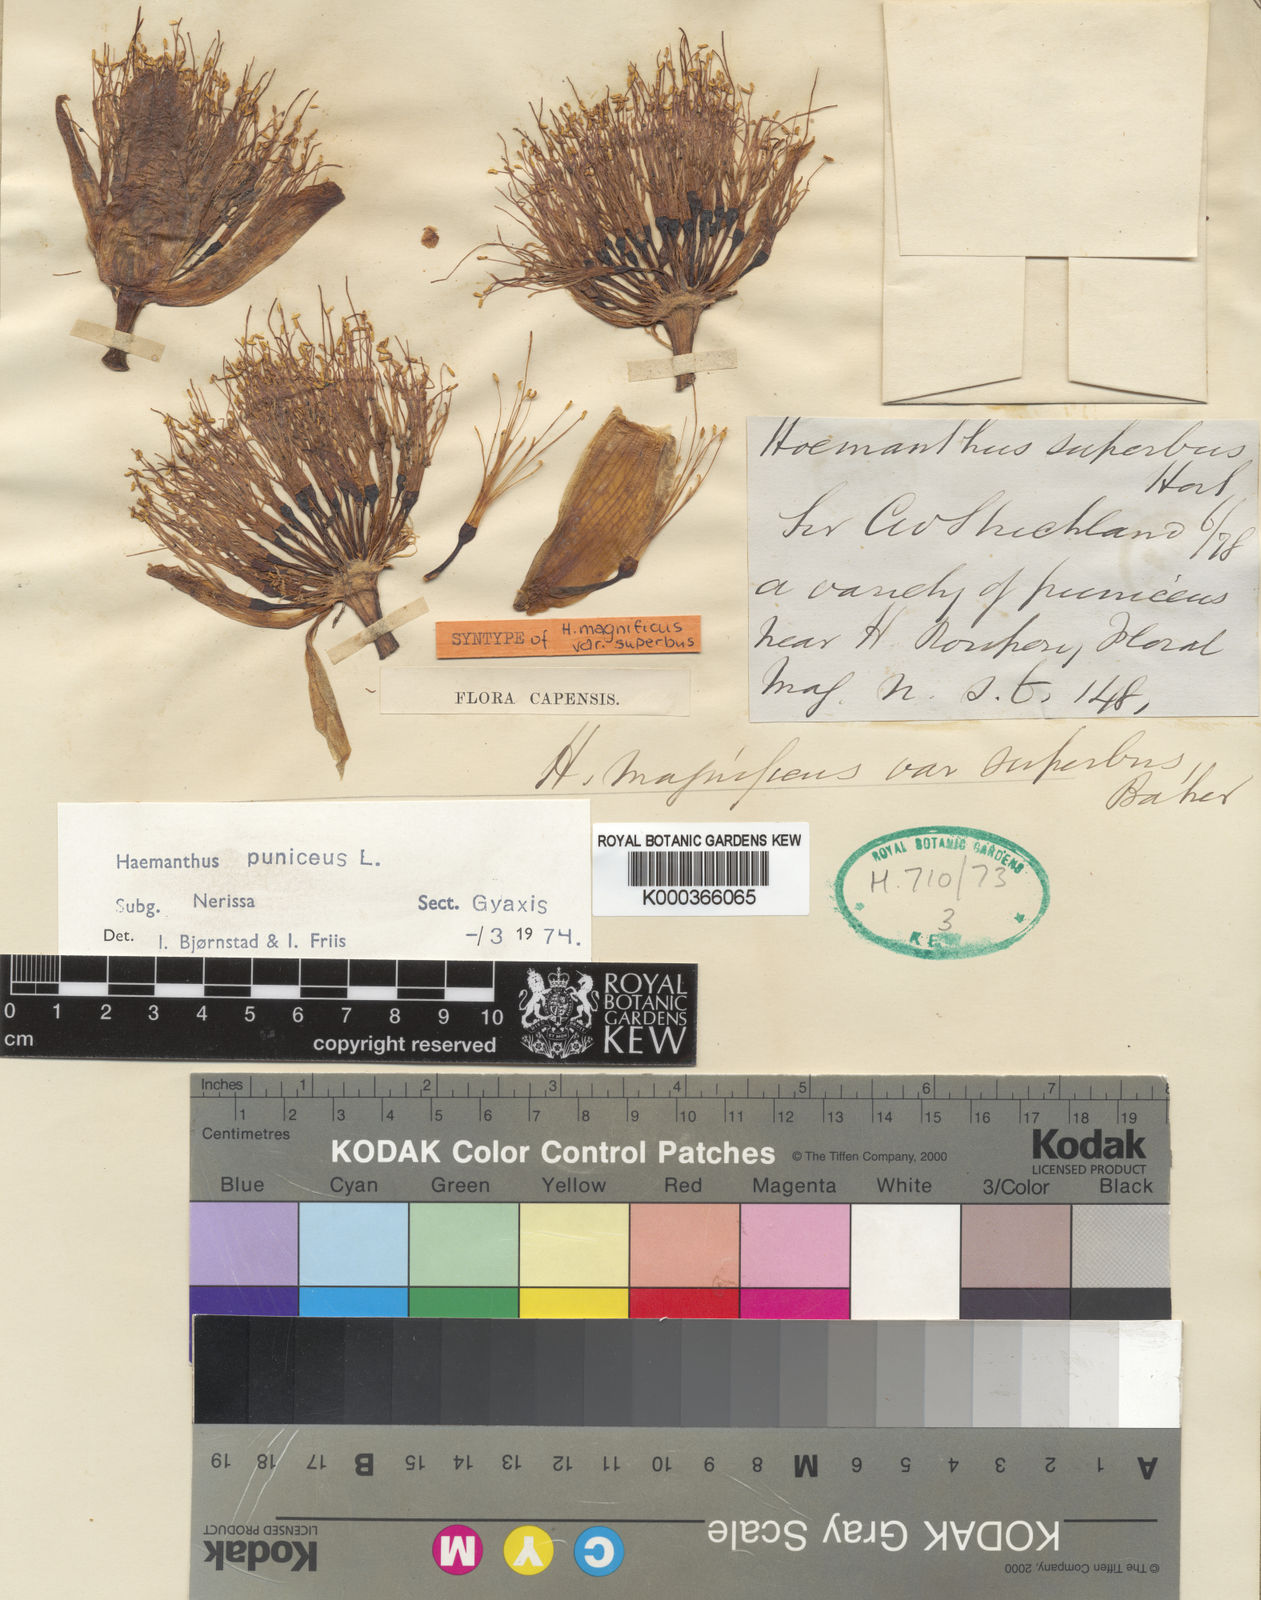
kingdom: Plantae
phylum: Tracheophyta
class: Liliopsida
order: Asparagales
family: Amaryllidaceae
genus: Scadoxus
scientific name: Scadoxus puniceus
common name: Royal-paintbrush
